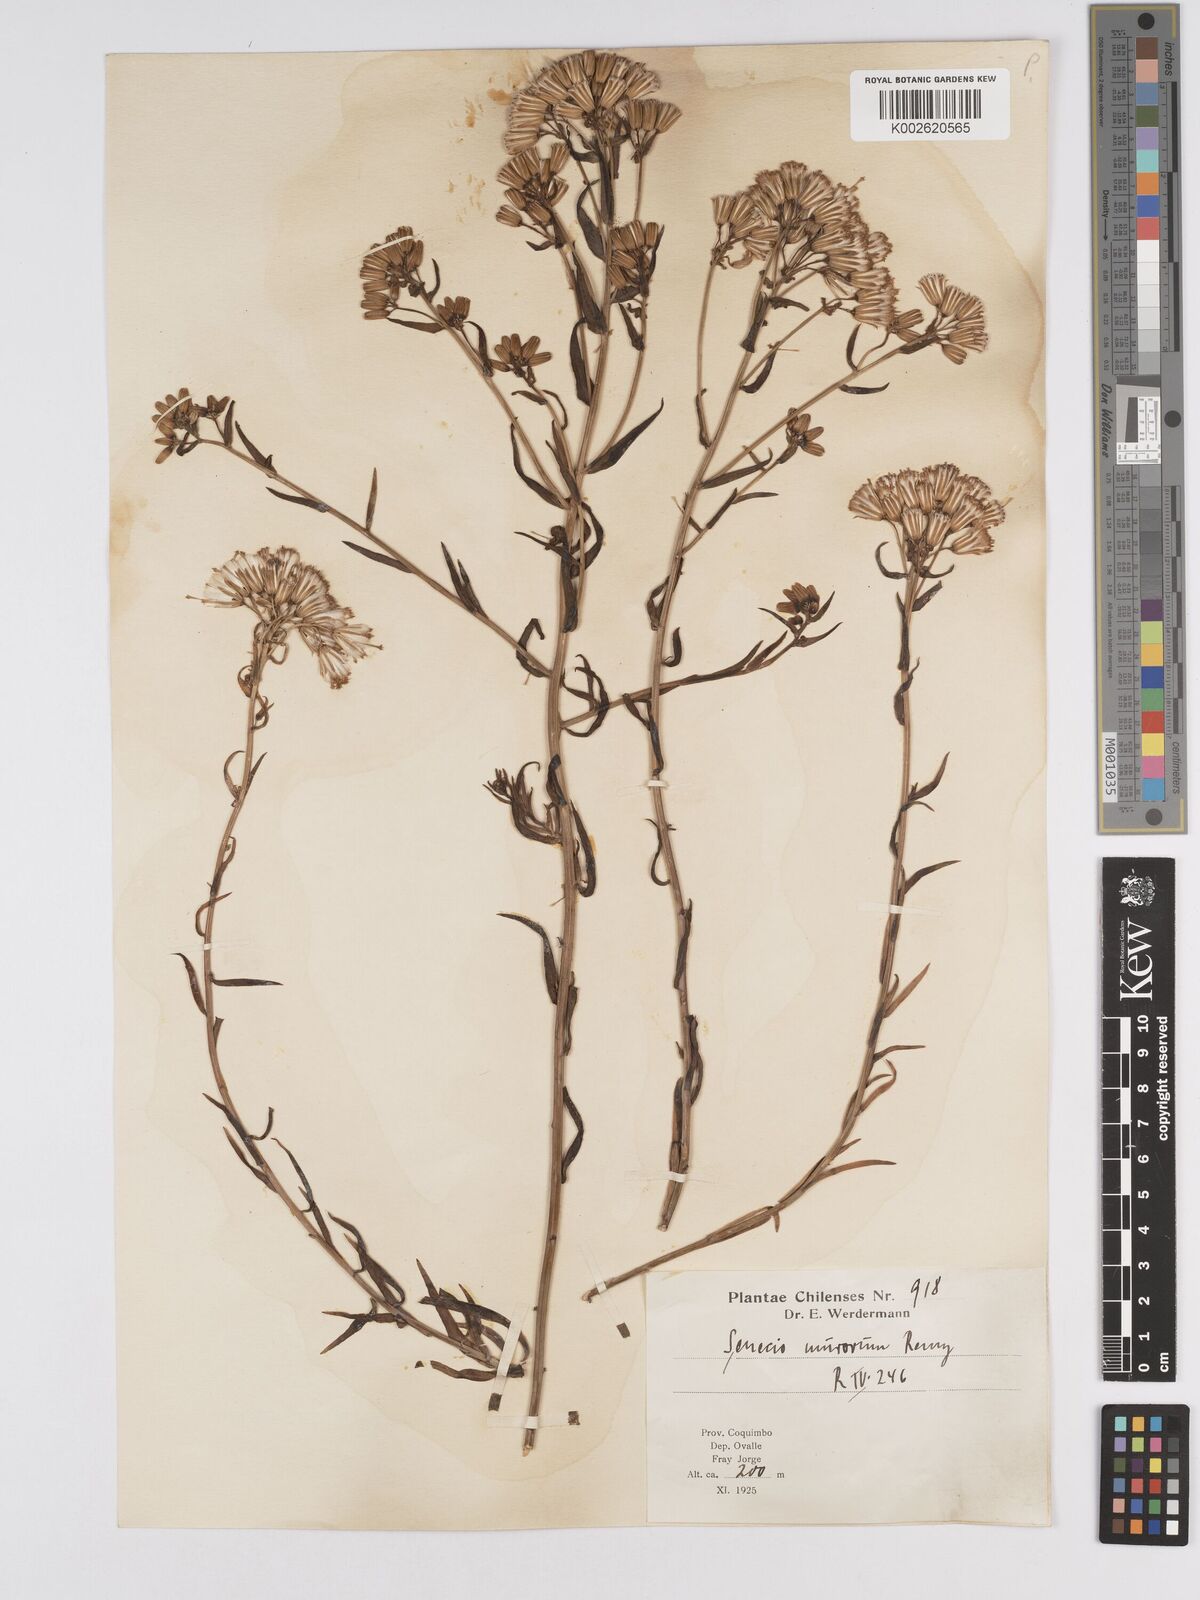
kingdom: Plantae
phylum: Tracheophyta
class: Magnoliopsida
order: Asterales
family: Asteraceae
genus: Senecio
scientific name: Senecio murorum
